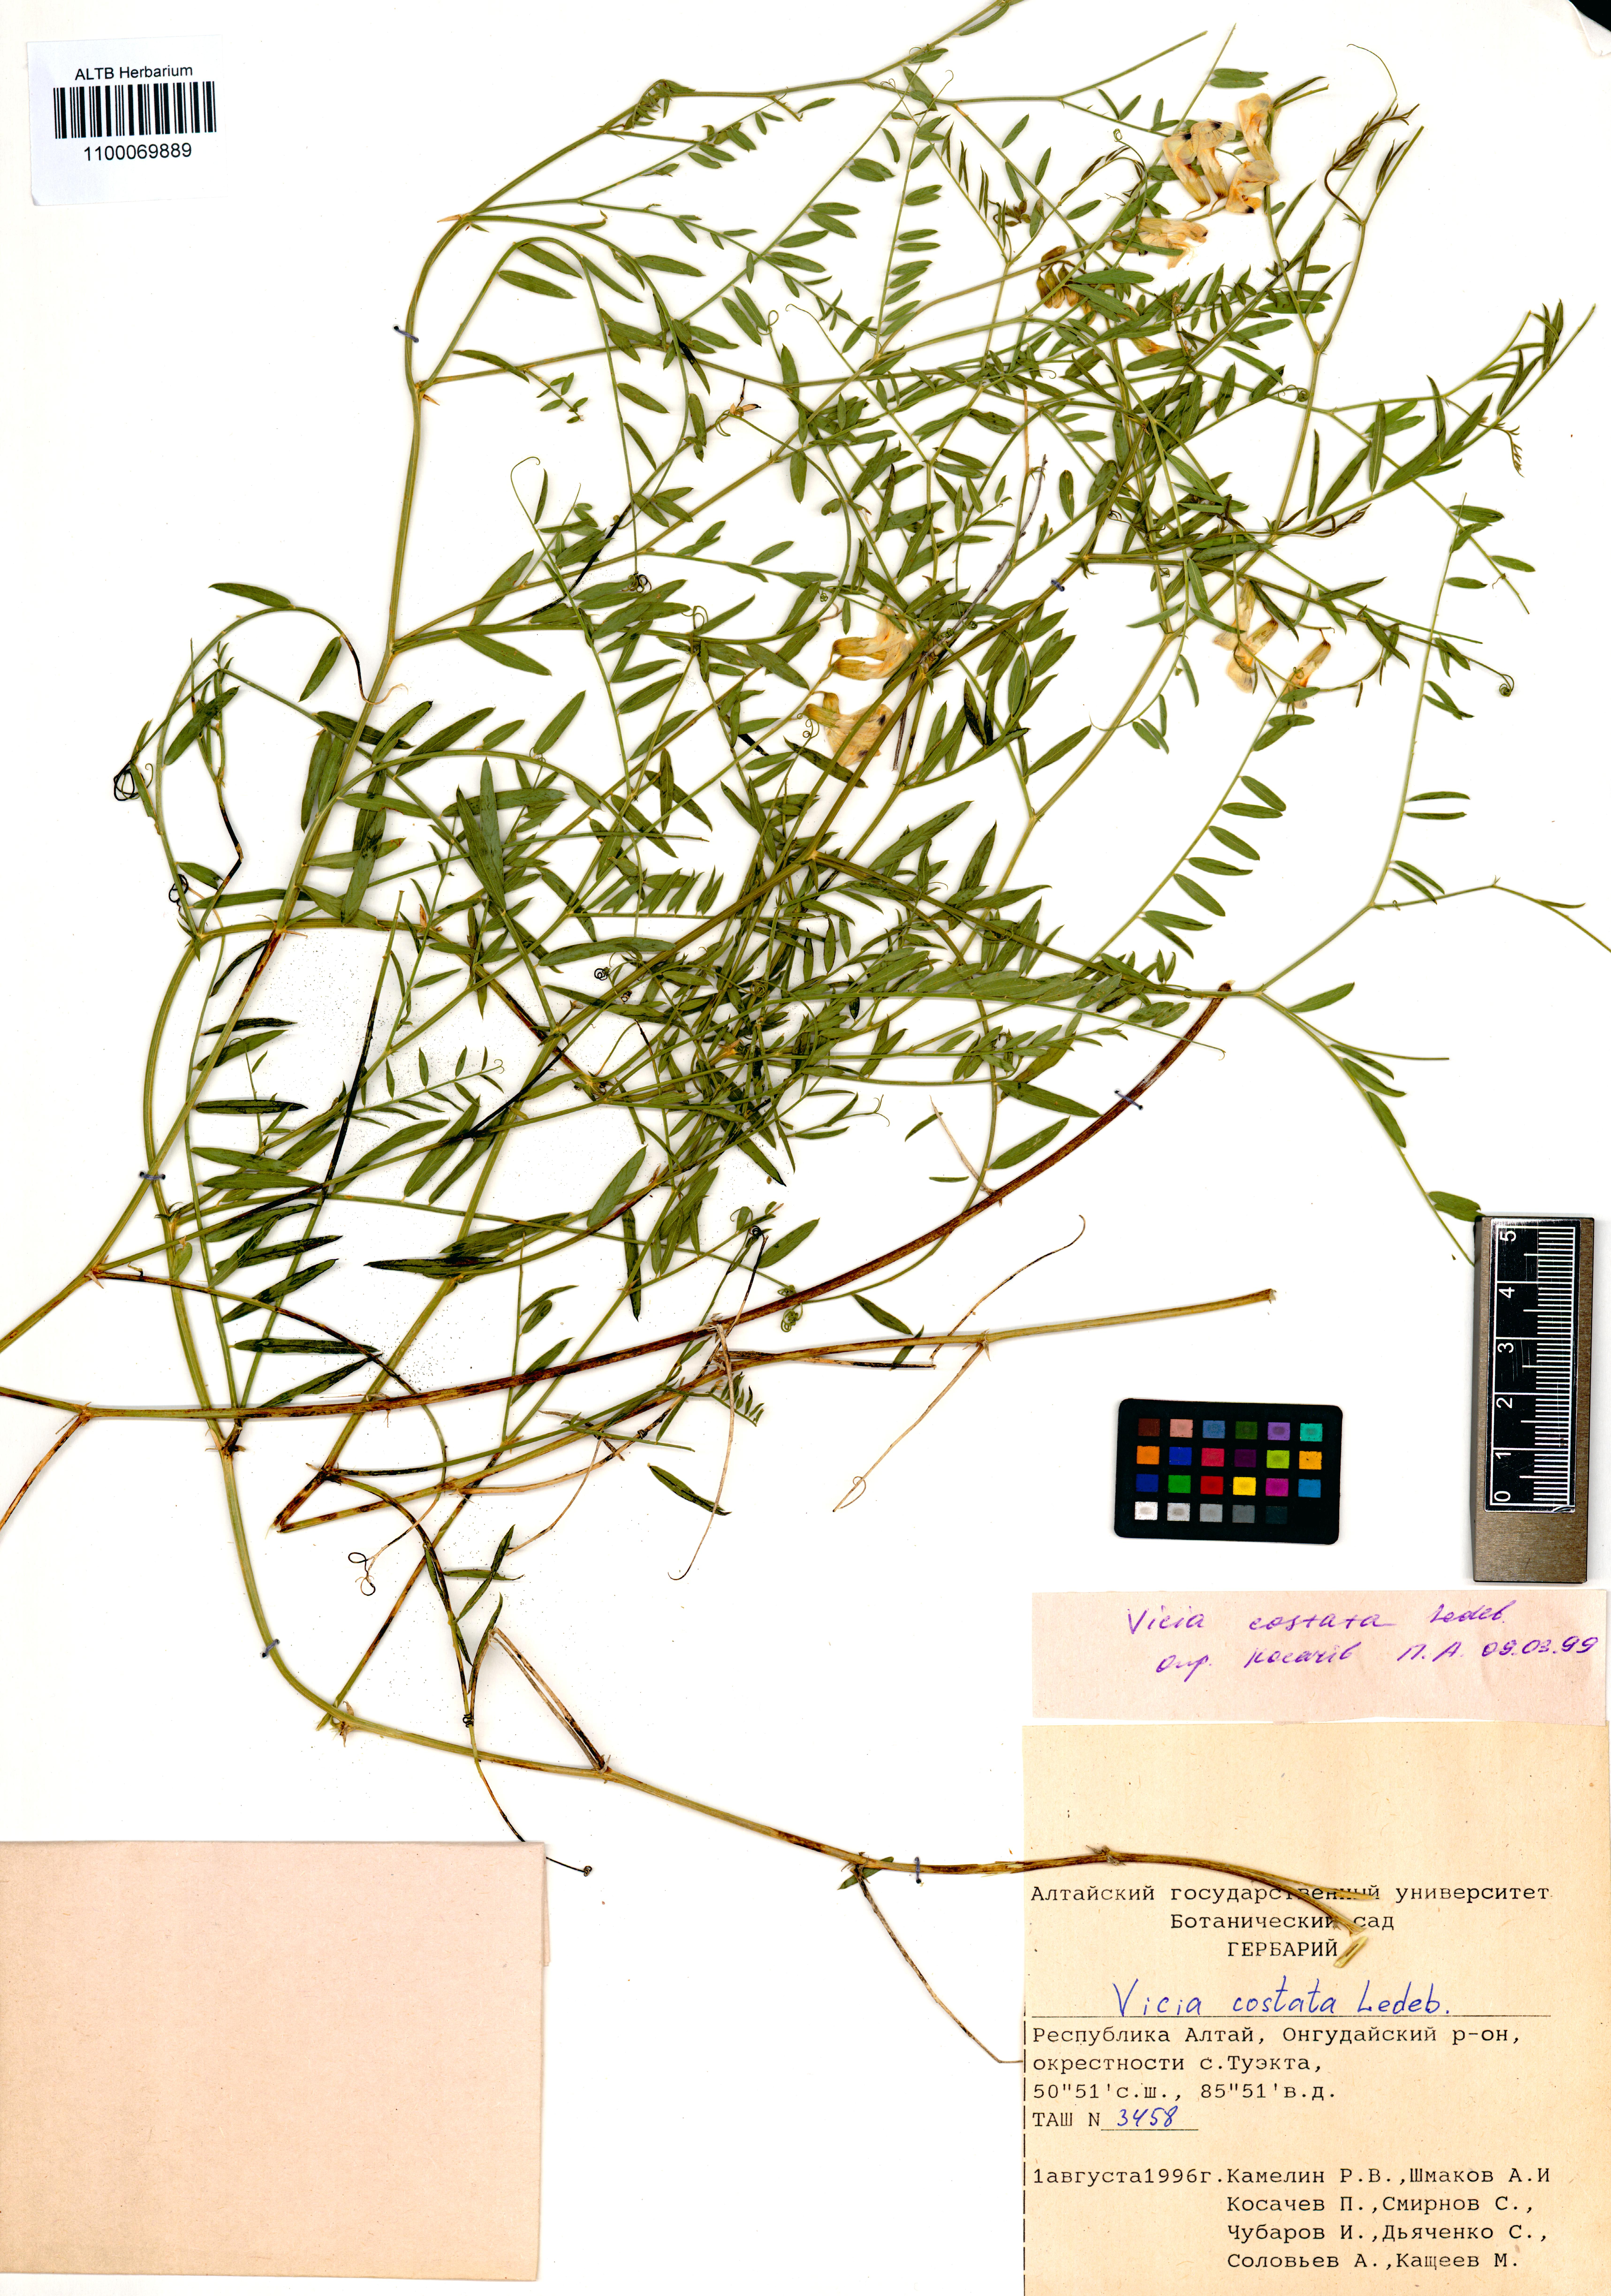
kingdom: Plantae
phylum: Tracheophyta
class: Magnoliopsida
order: Fabales
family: Fabaceae
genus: Vicia
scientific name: Vicia costata
